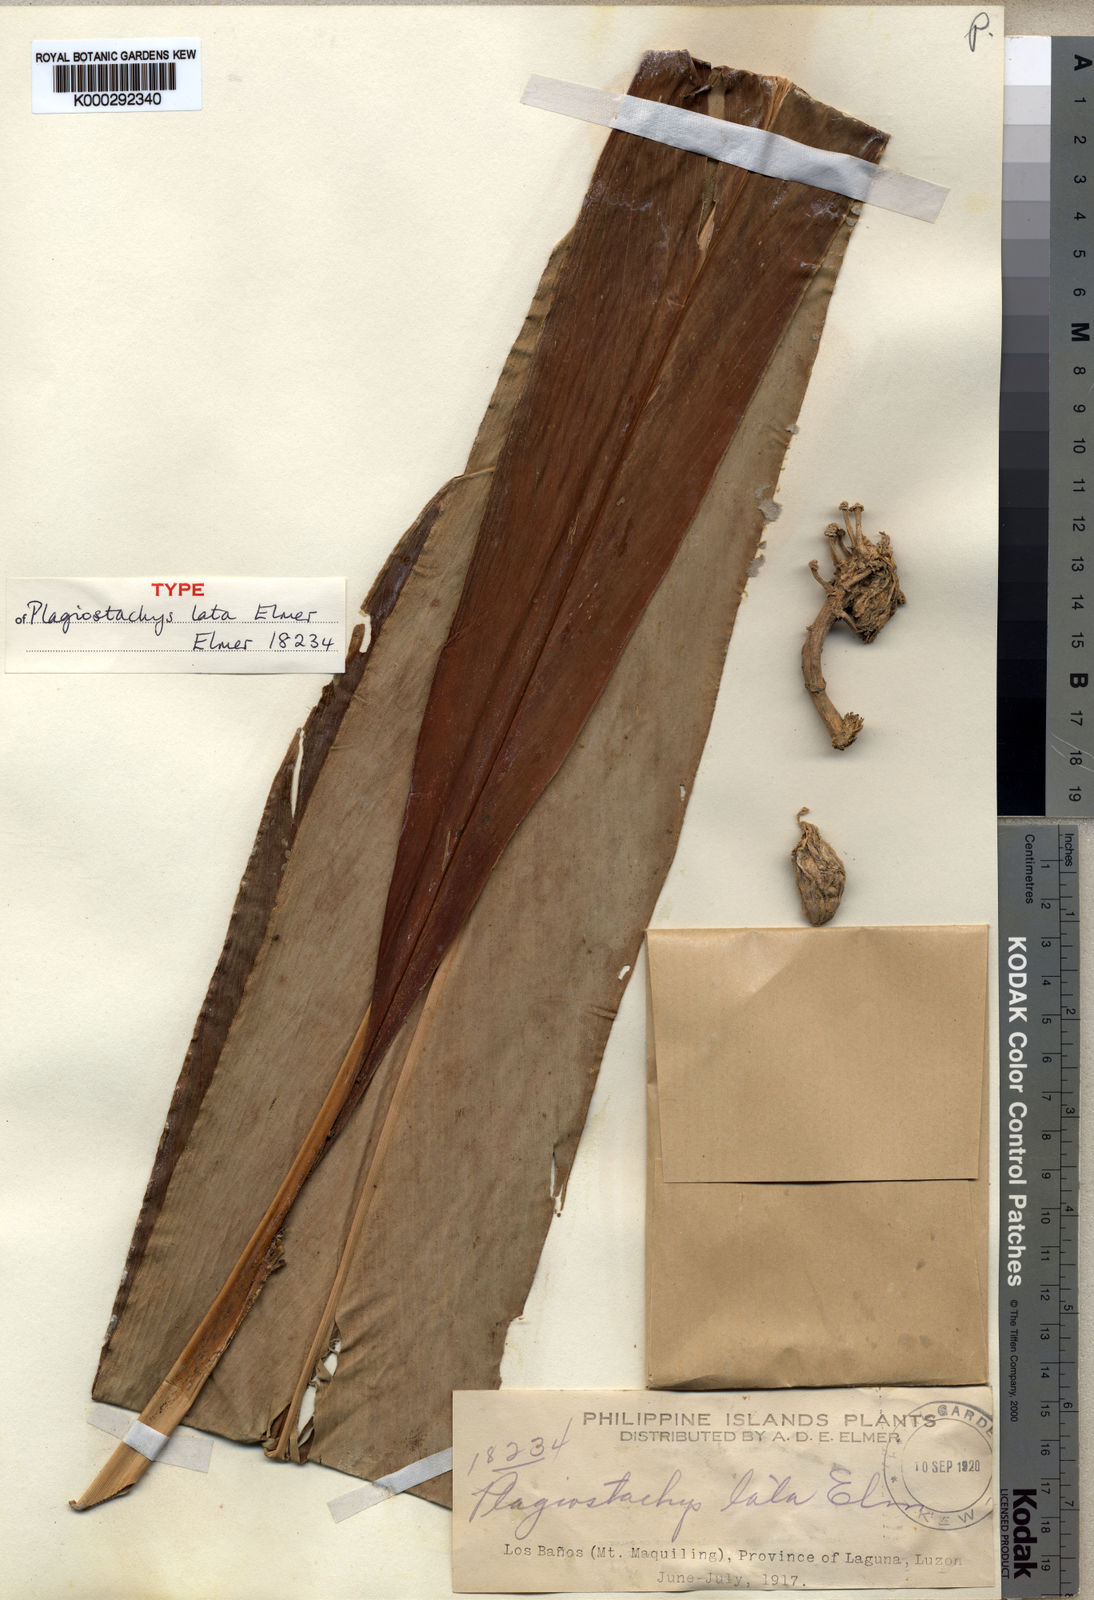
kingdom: Plantae
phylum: Tracheophyta
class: Liliopsida
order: Zingiberales
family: Zingiberaceae
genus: Plagiostachys
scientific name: Plagiostachys
